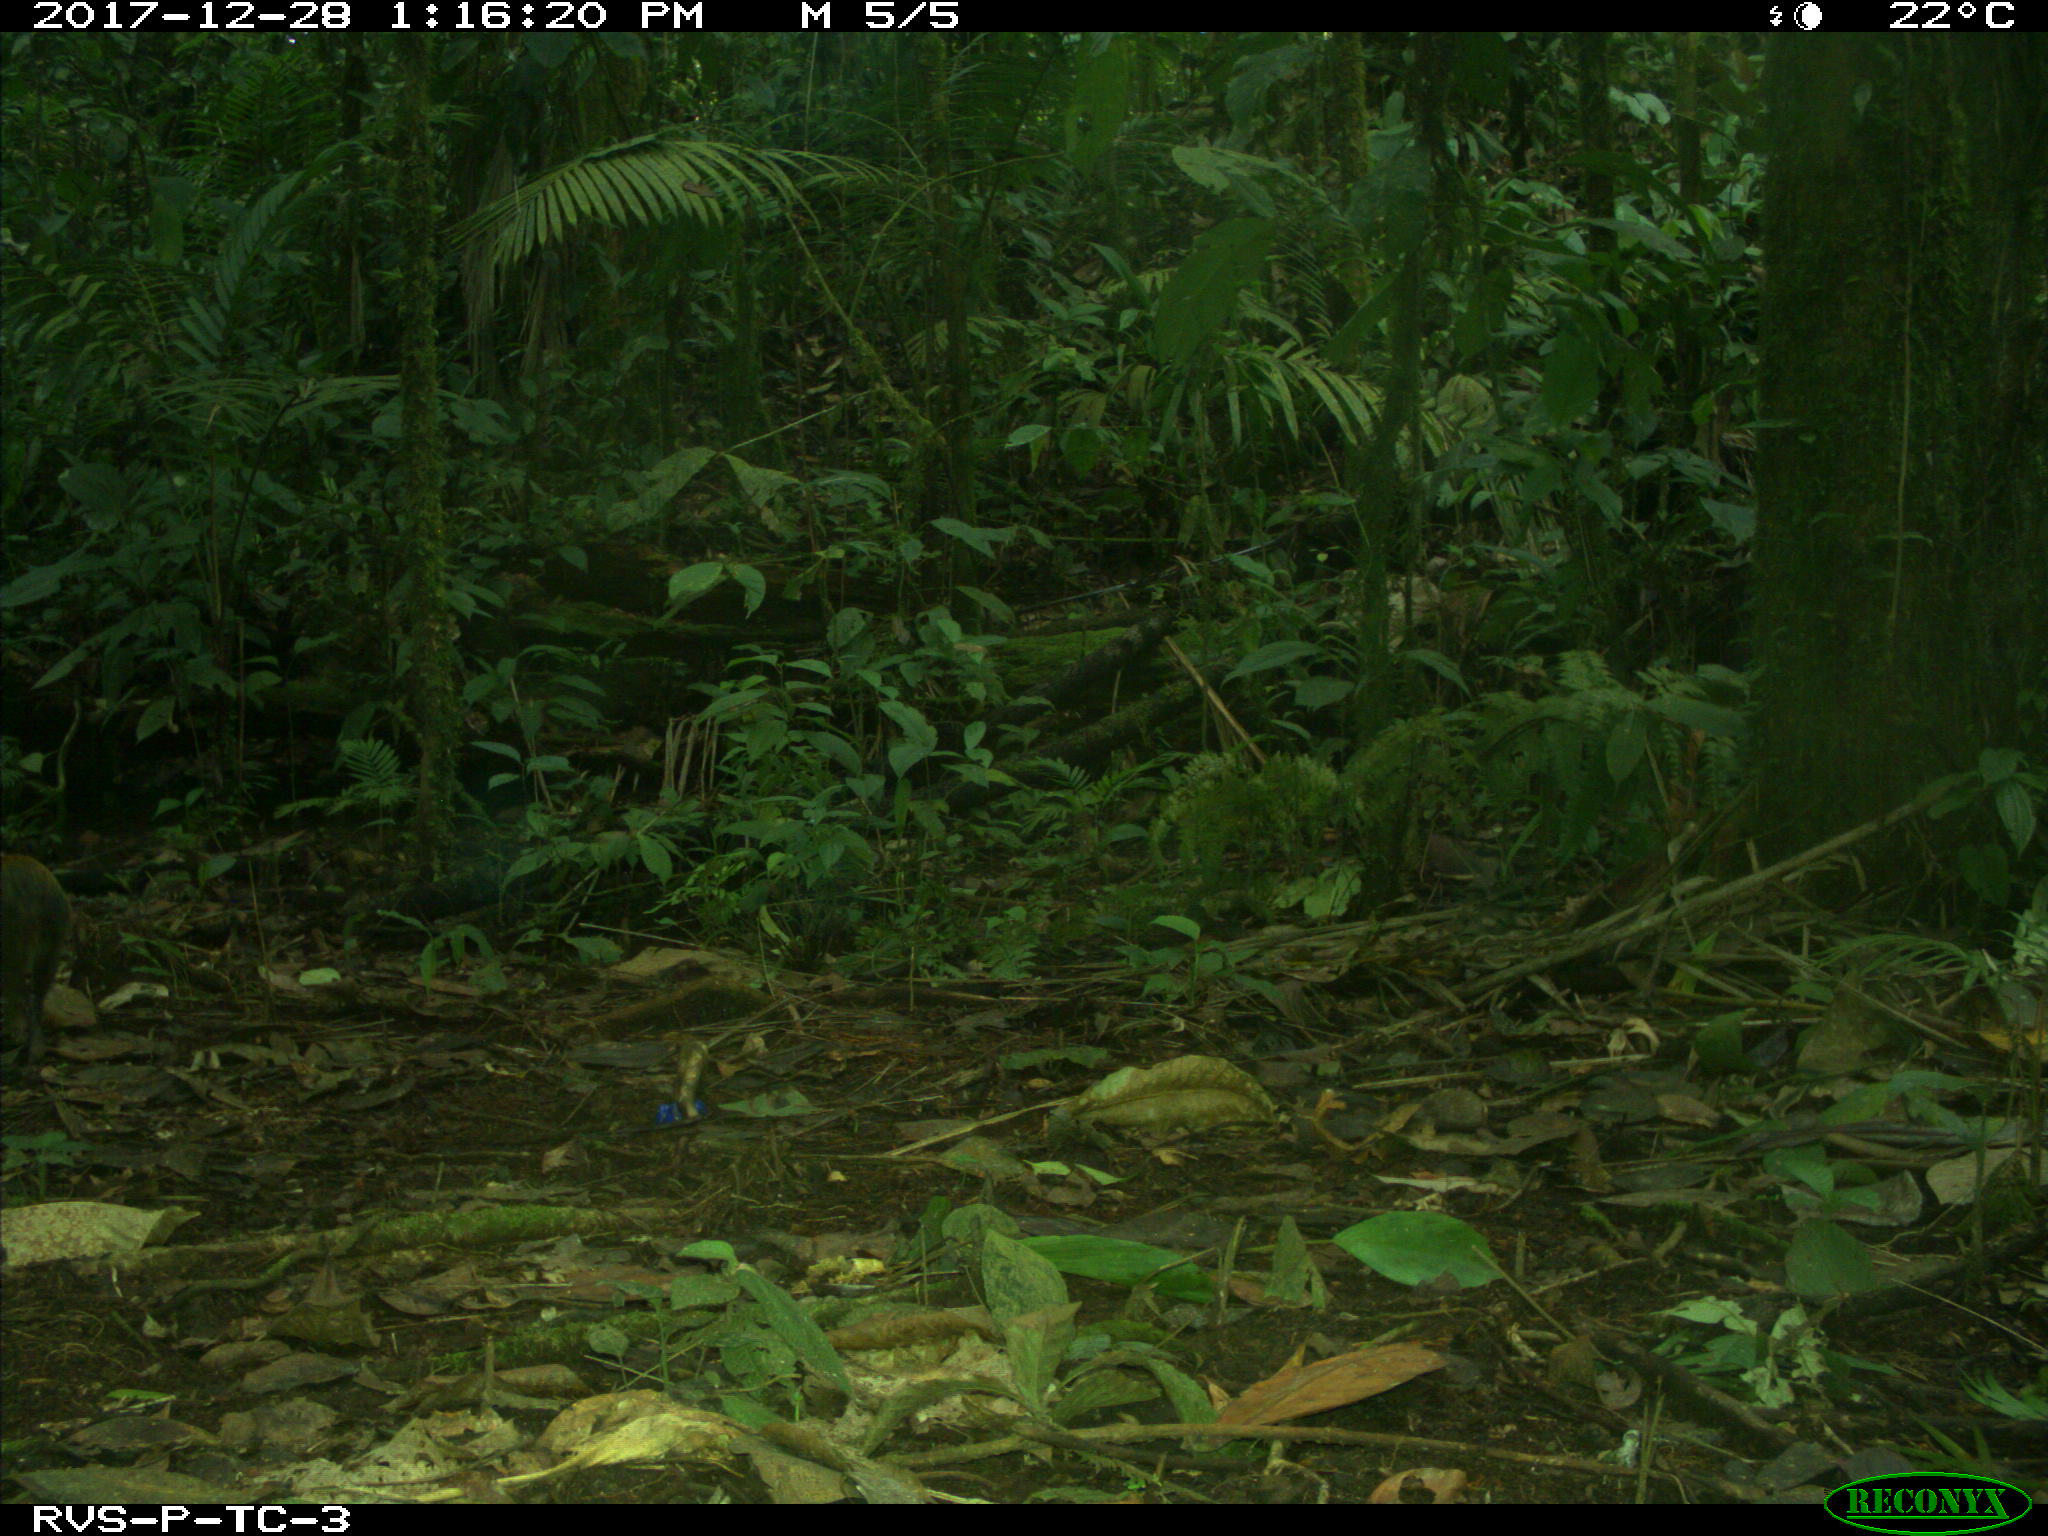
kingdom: Animalia
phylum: Chordata
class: Mammalia
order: Rodentia
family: Dasyproctidae
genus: Dasyprocta
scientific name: Dasyprocta punctata
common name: Central american agouti
